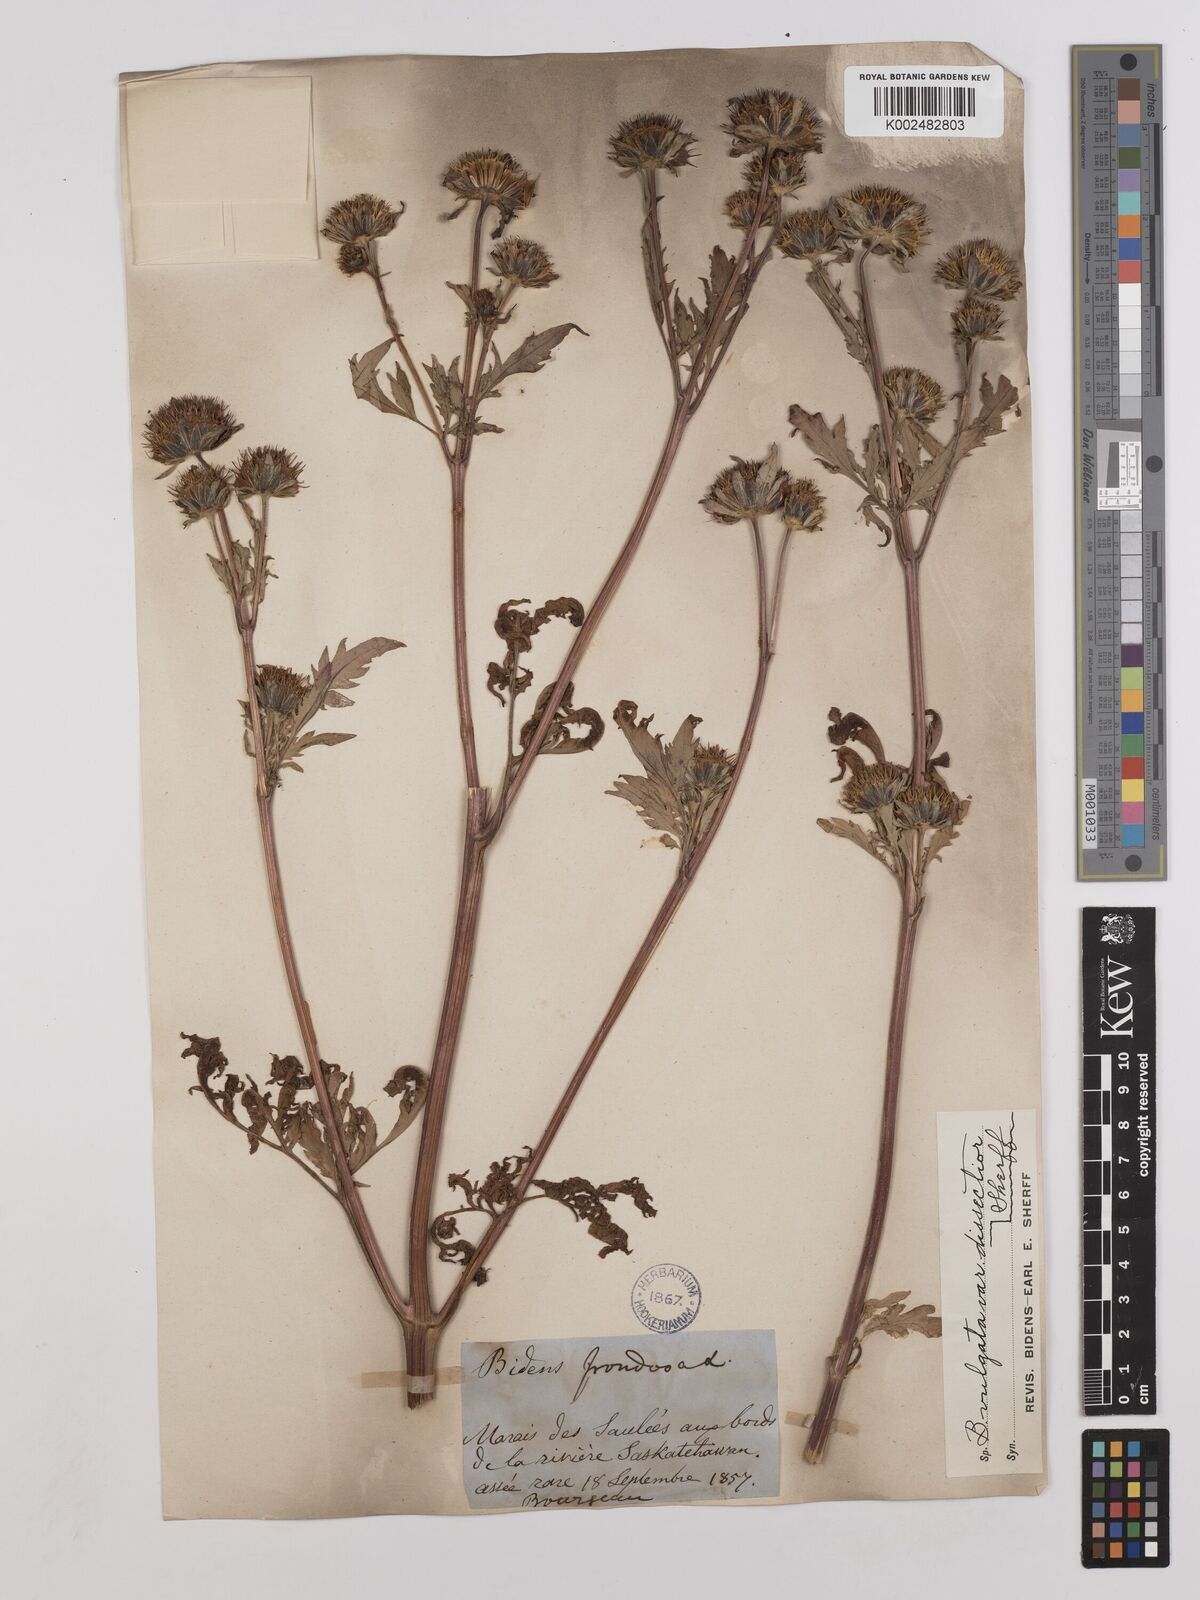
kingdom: Plantae
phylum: Tracheophyta
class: Magnoliopsida
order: Asterales
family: Asteraceae
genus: Bidens
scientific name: Bidens vulgata
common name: Tall beggarticks
